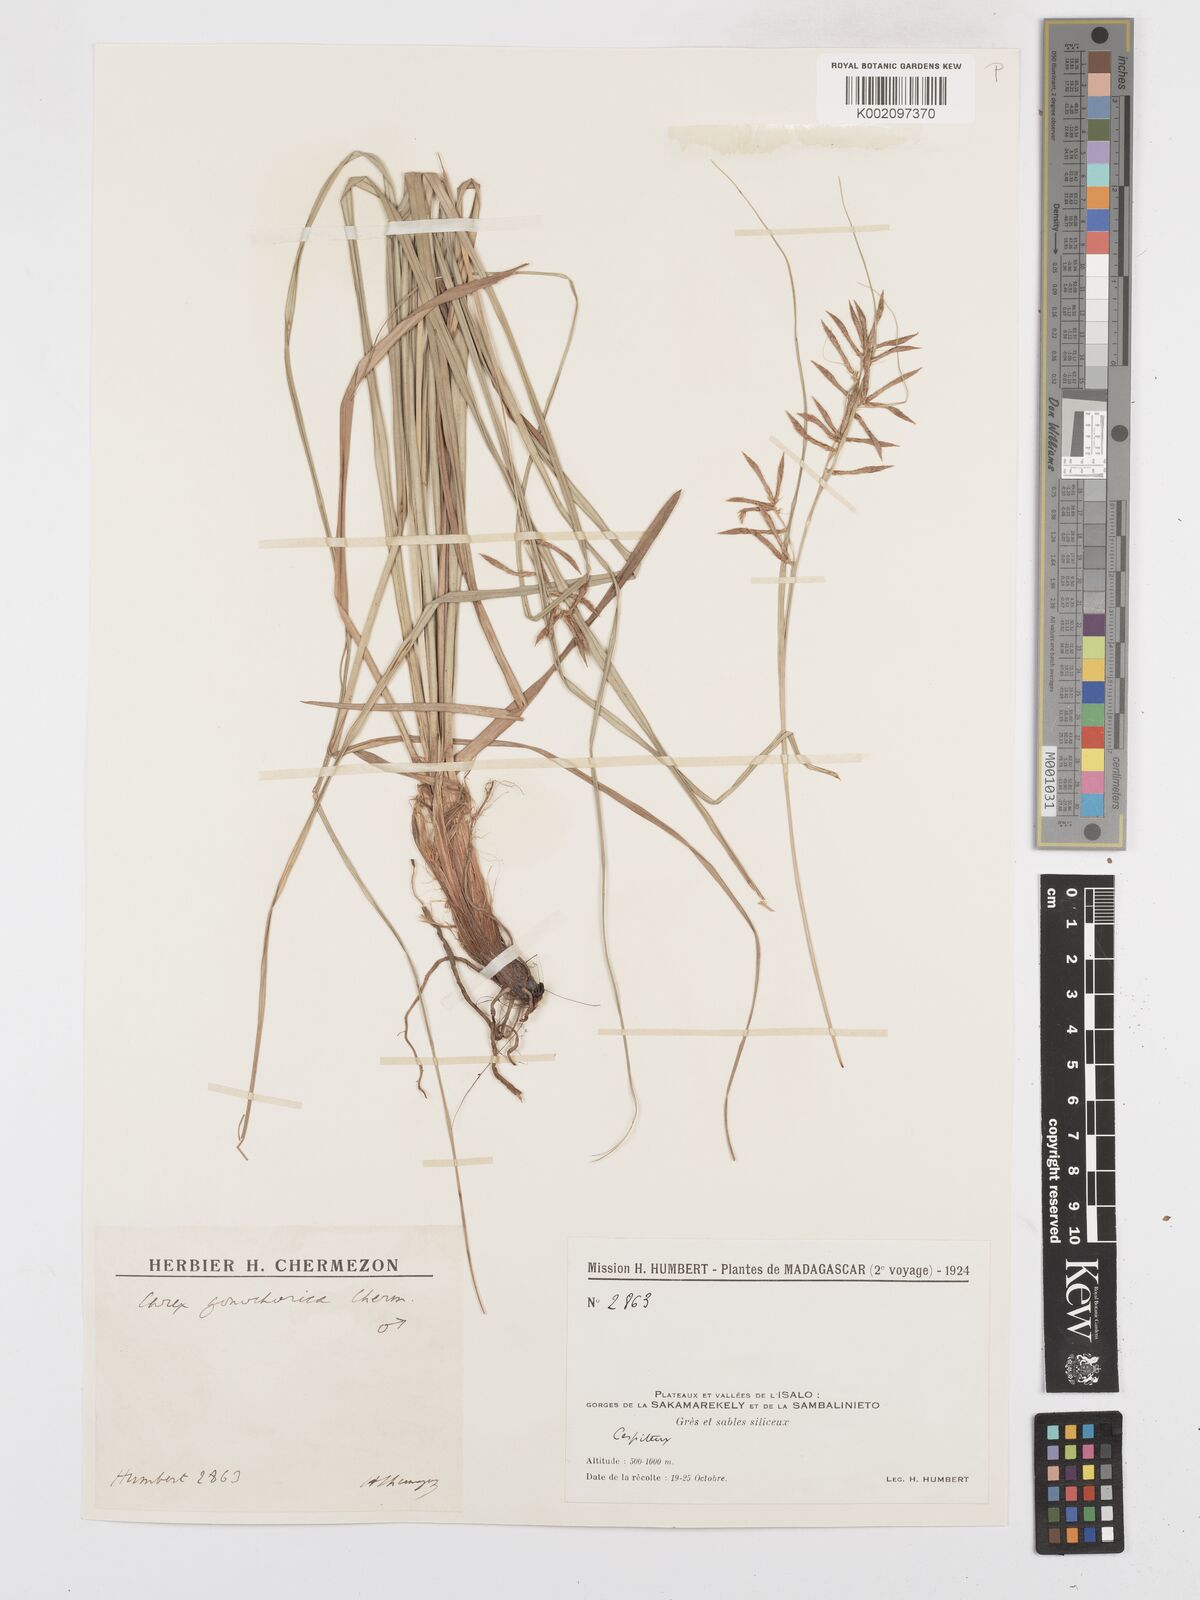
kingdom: Plantae
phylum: Tracheophyta
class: Liliopsida
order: Poales
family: Cyperaceae
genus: Carex
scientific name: Carex pyramidalis
